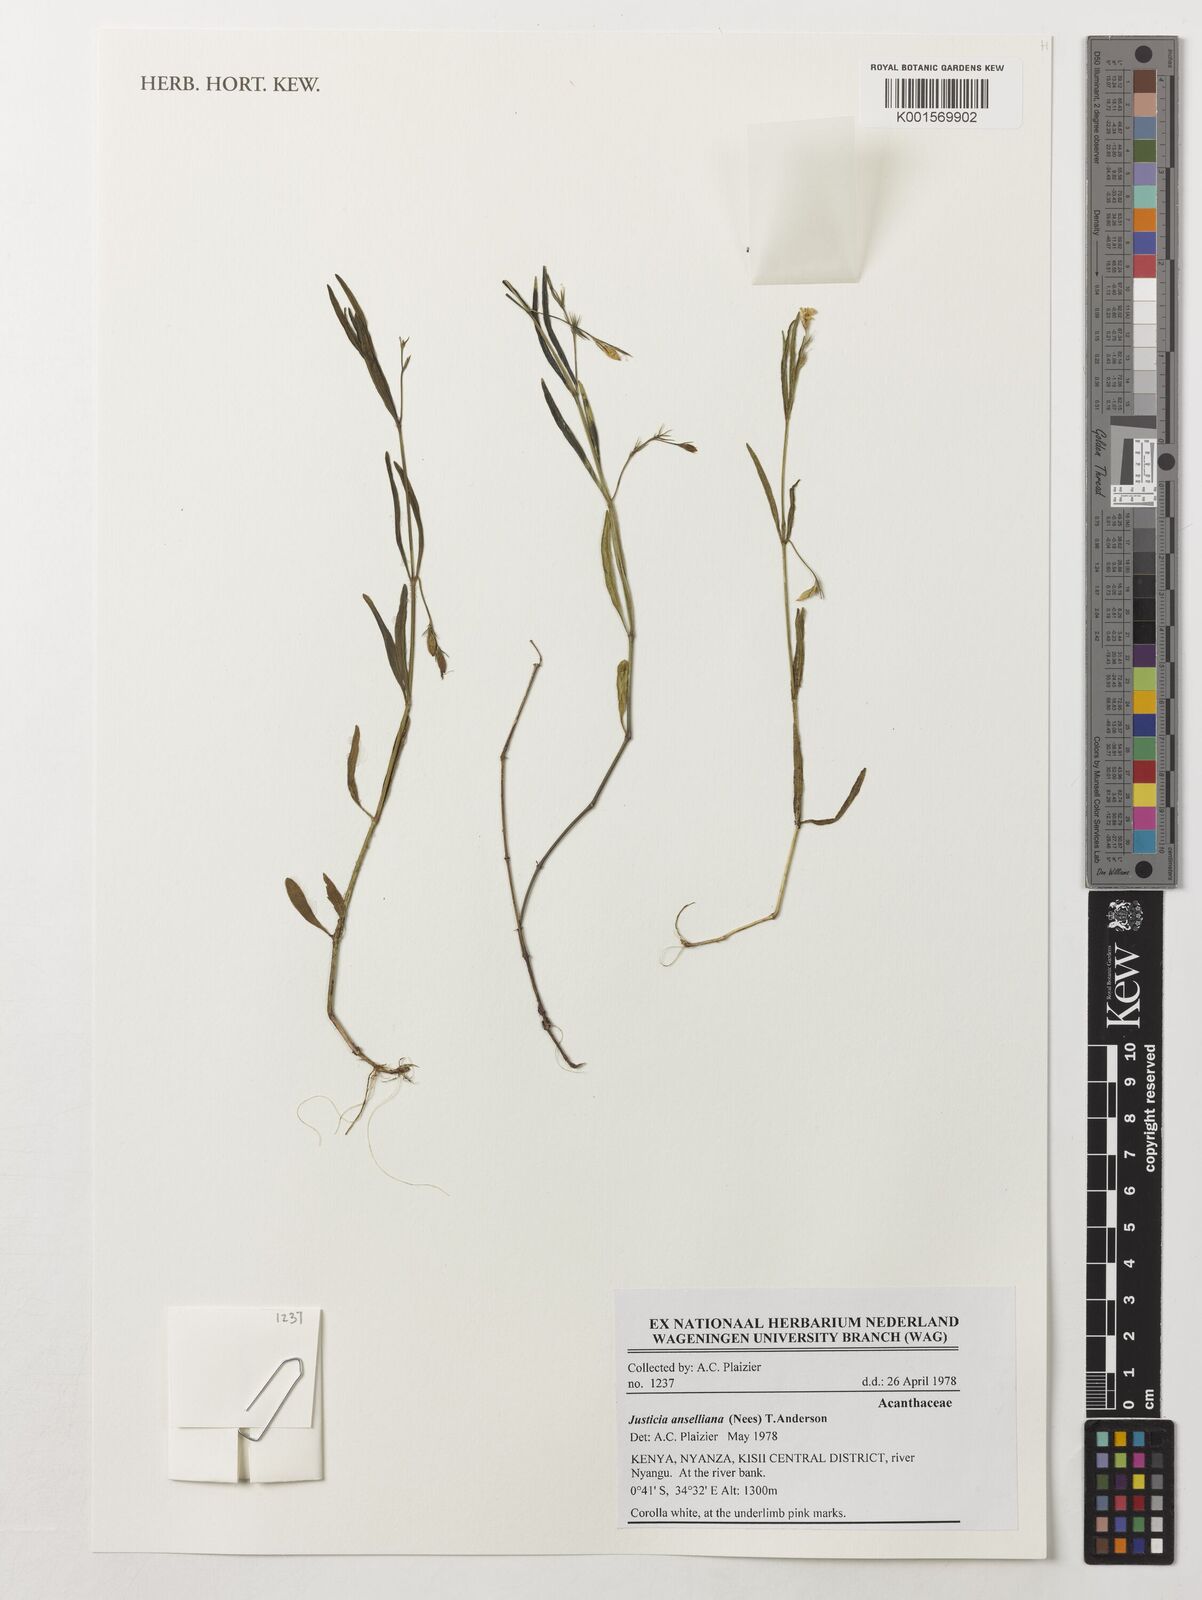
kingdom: Plantae
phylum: Tracheophyta
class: Magnoliopsida
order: Lamiales
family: Acanthaceae
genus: Justicia
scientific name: Justicia anselliana
